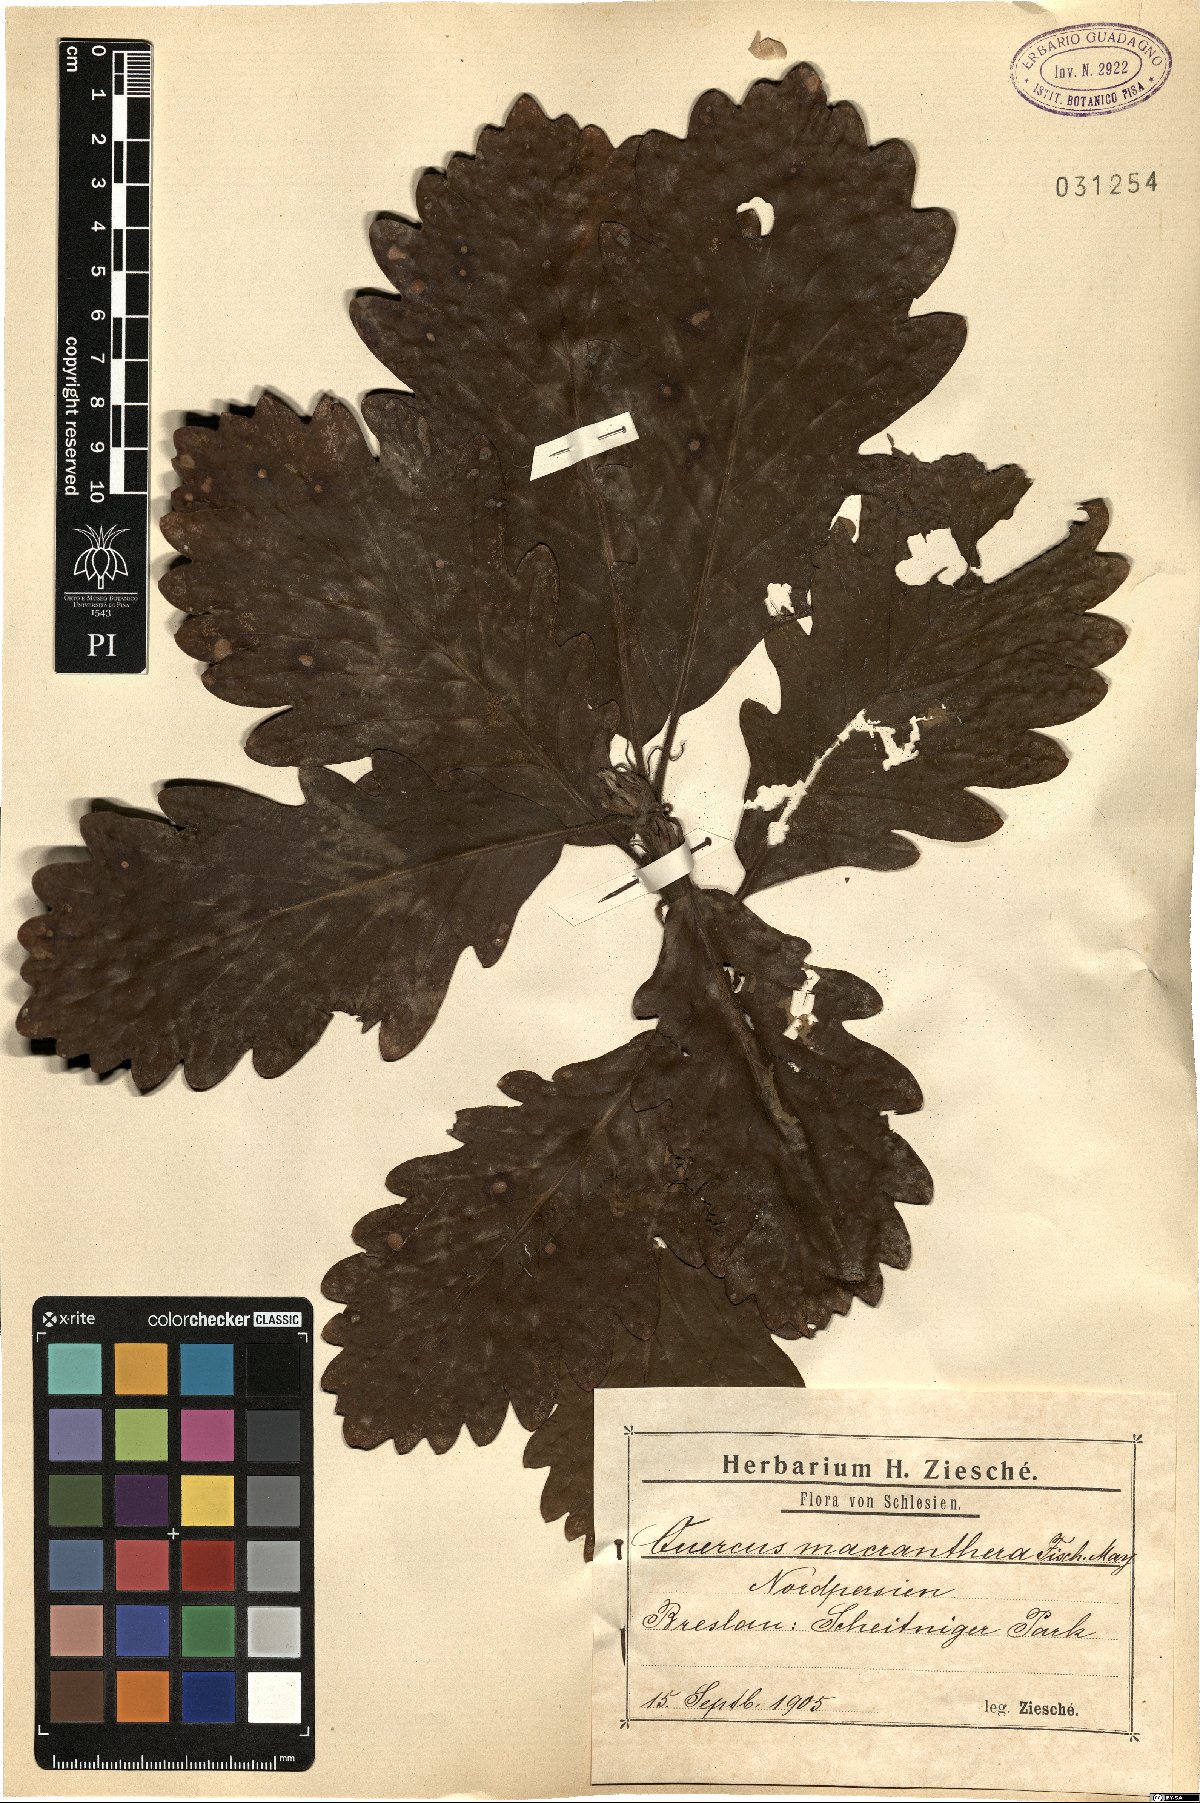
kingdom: Plantae
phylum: Tracheophyta
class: Magnoliopsida
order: Fagales
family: Fagaceae
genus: Quercus
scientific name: Quercus macranthera
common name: Caucasian oak
